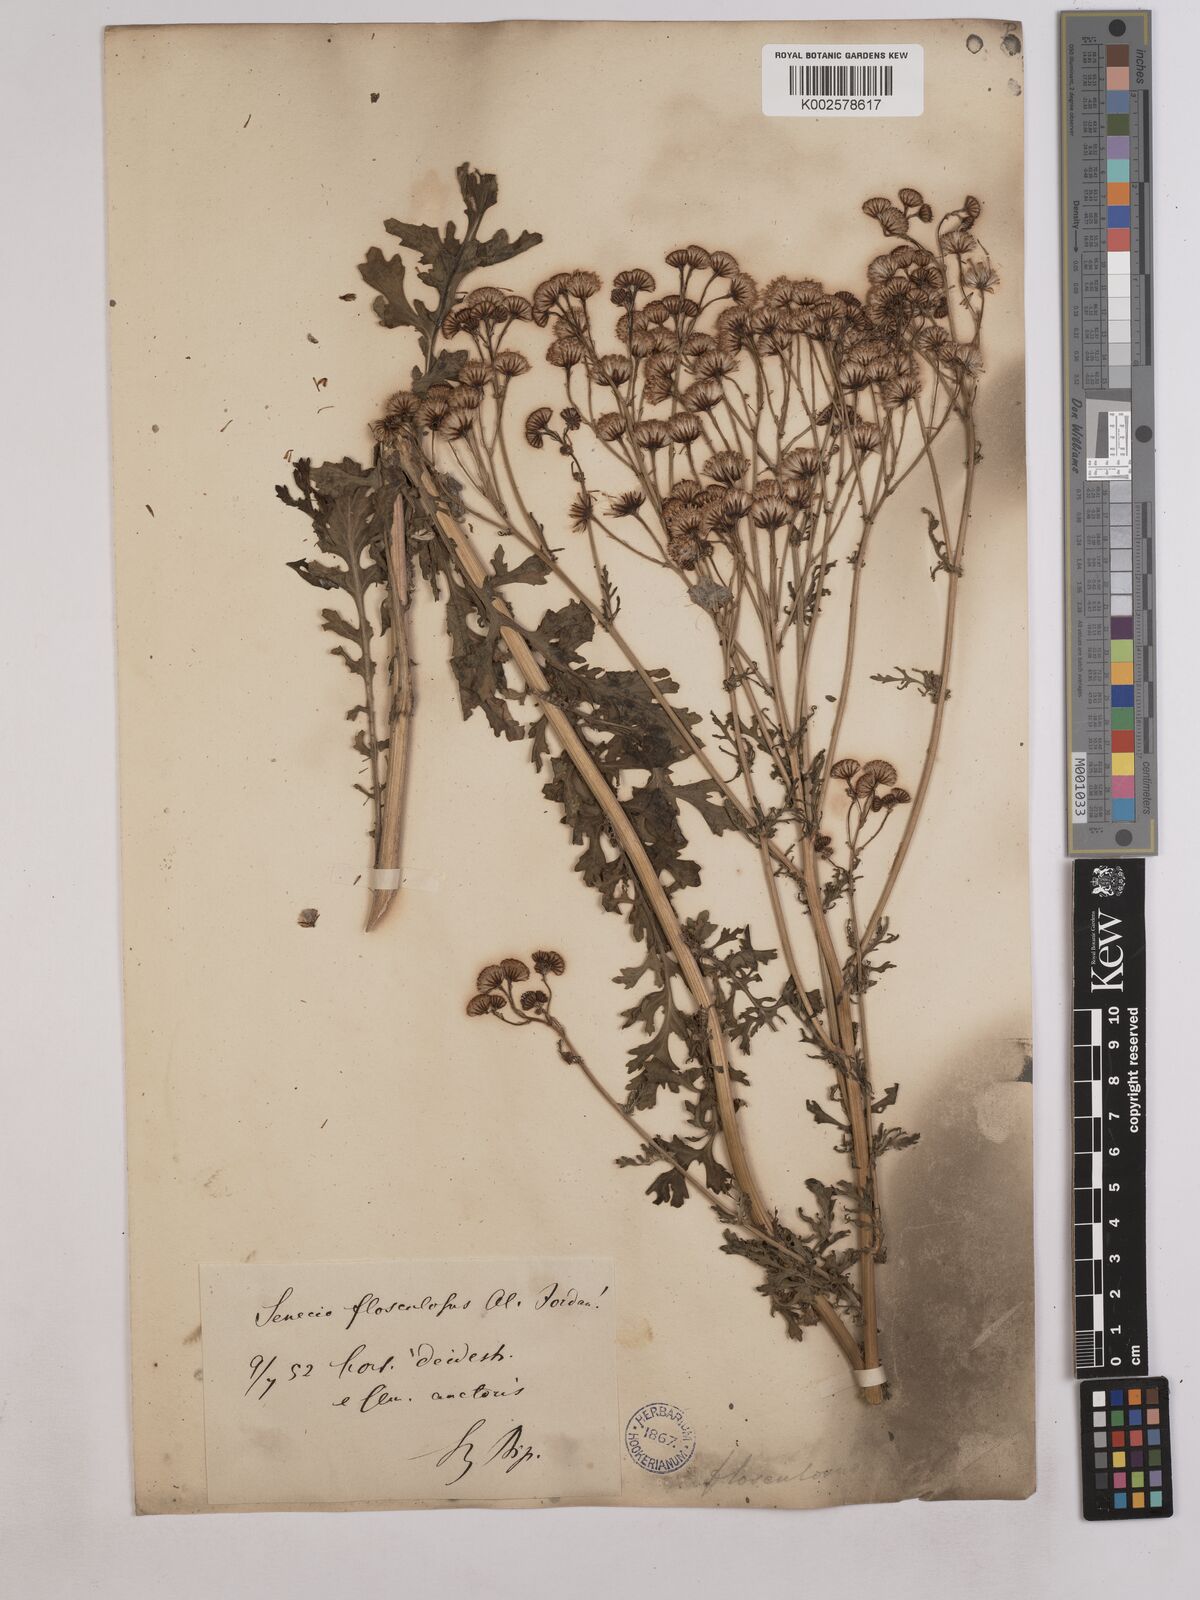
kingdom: Plantae
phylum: Tracheophyta
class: Magnoliopsida
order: Asterales
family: Asteraceae
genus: Jacobaea
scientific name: Jacobaea vulgaris
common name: Stinking willie
